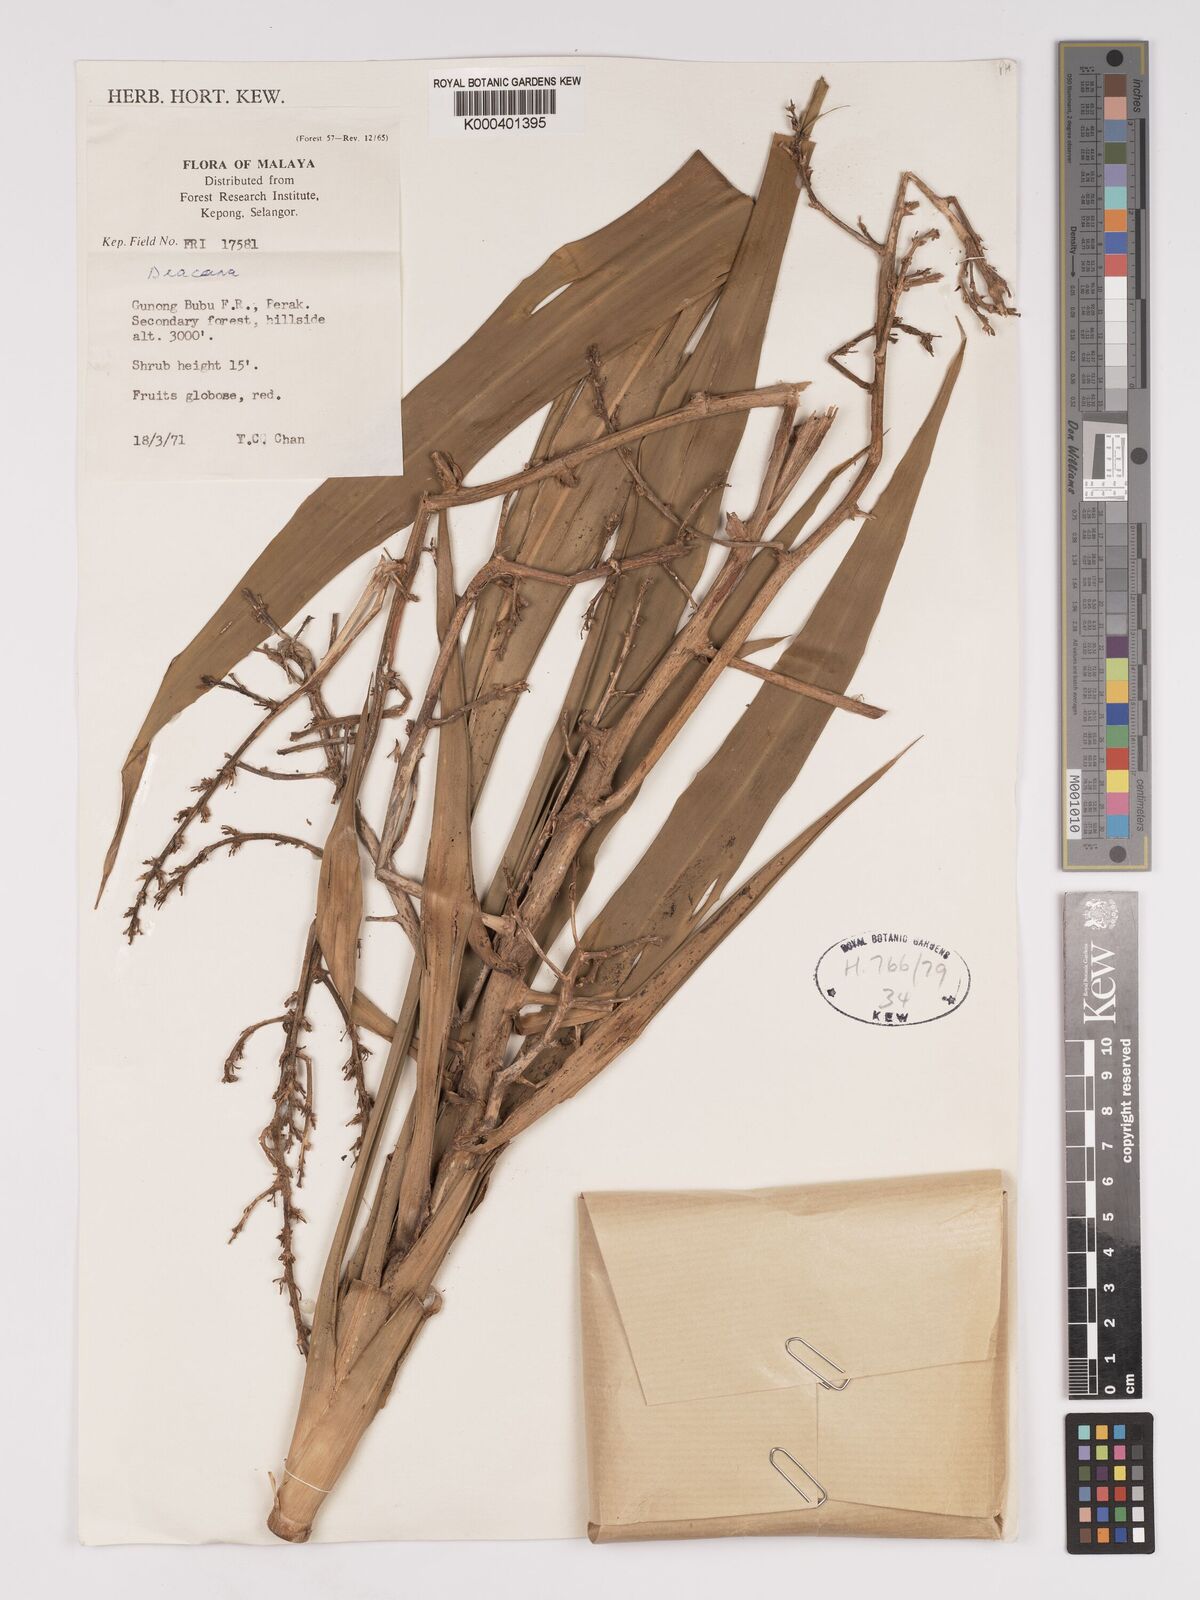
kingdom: Plantae
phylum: Tracheophyta
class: Liliopsida
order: Asparagales
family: Asparagaceae
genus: Dracaena
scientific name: Dracaena
